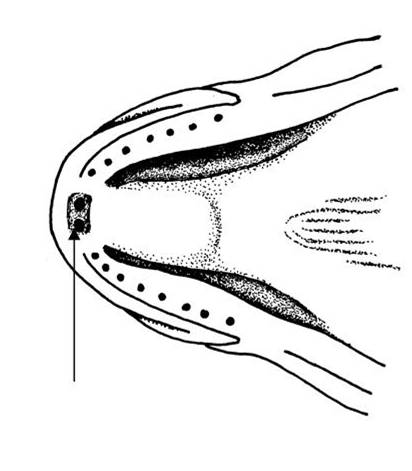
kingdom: Animalia
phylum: Chordata
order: Perciformes
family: Gobiidae
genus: Amblyeleotris
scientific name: Amblyeleotris guttata
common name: Black-chest shrimp-goby
